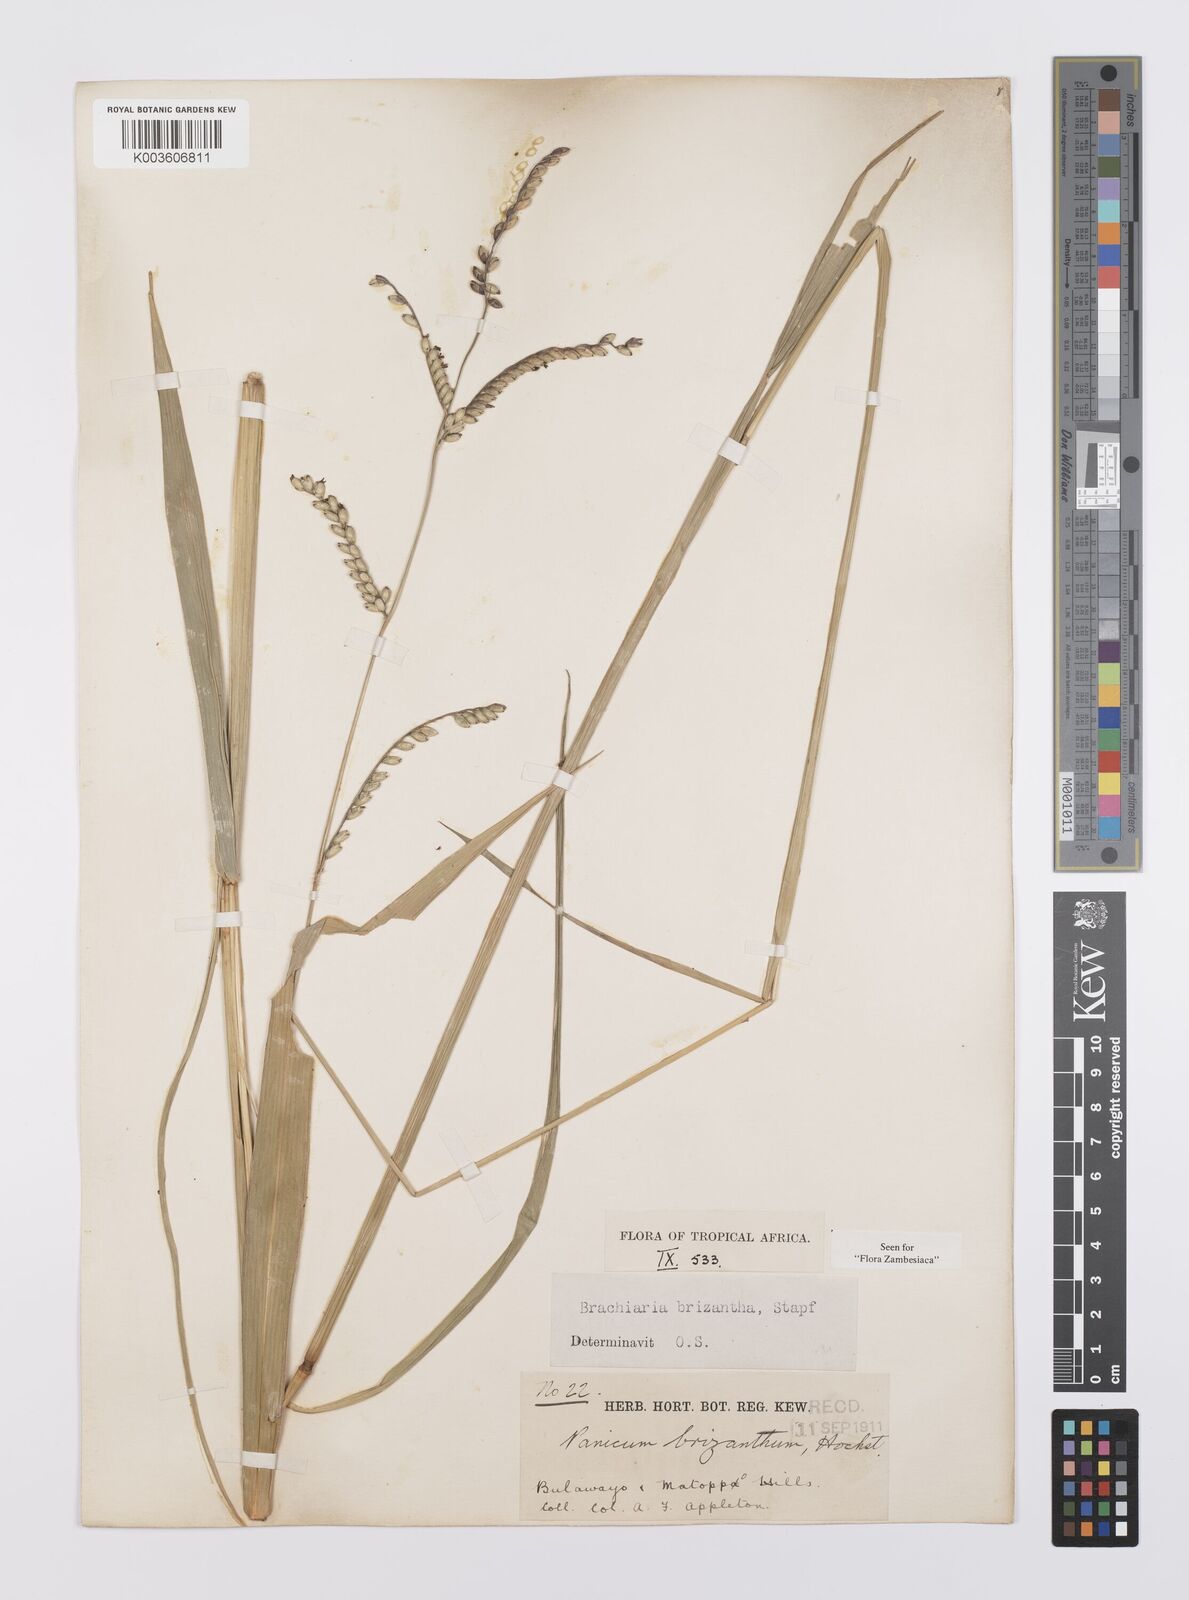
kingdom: Plantae
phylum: Tracheophyta
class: Liliopsida
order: Poales
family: Poaceae
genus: Urochloa
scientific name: Urochloa brizantha
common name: Palisade signalgrass
